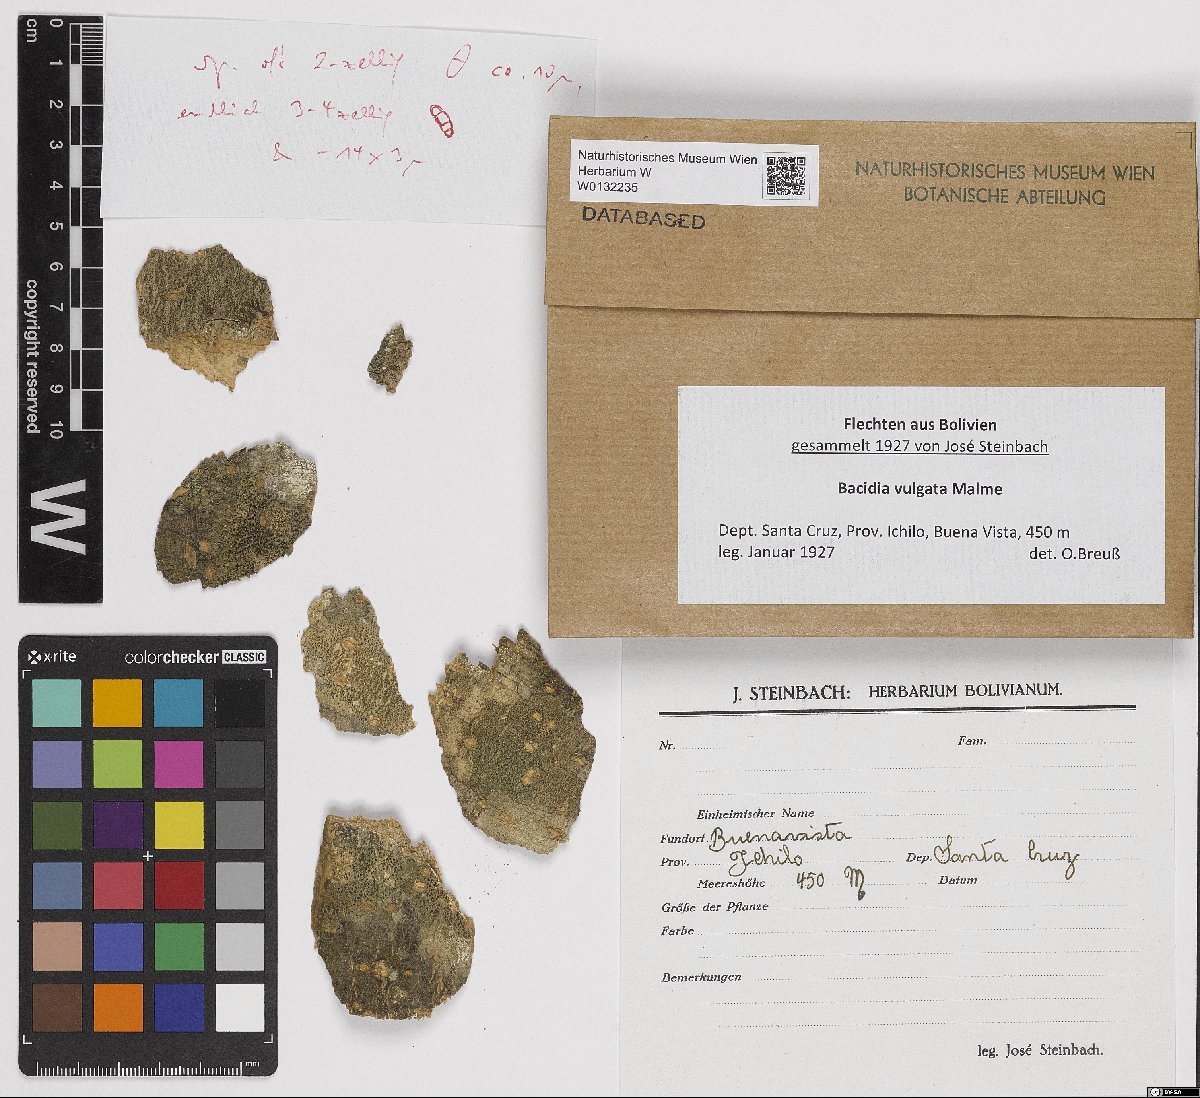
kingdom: Fungi
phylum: Ascomycota
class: Lecanoromycetes
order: Lecanorales
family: Ramalinaceae
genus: Bacidia
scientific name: Bacidia
